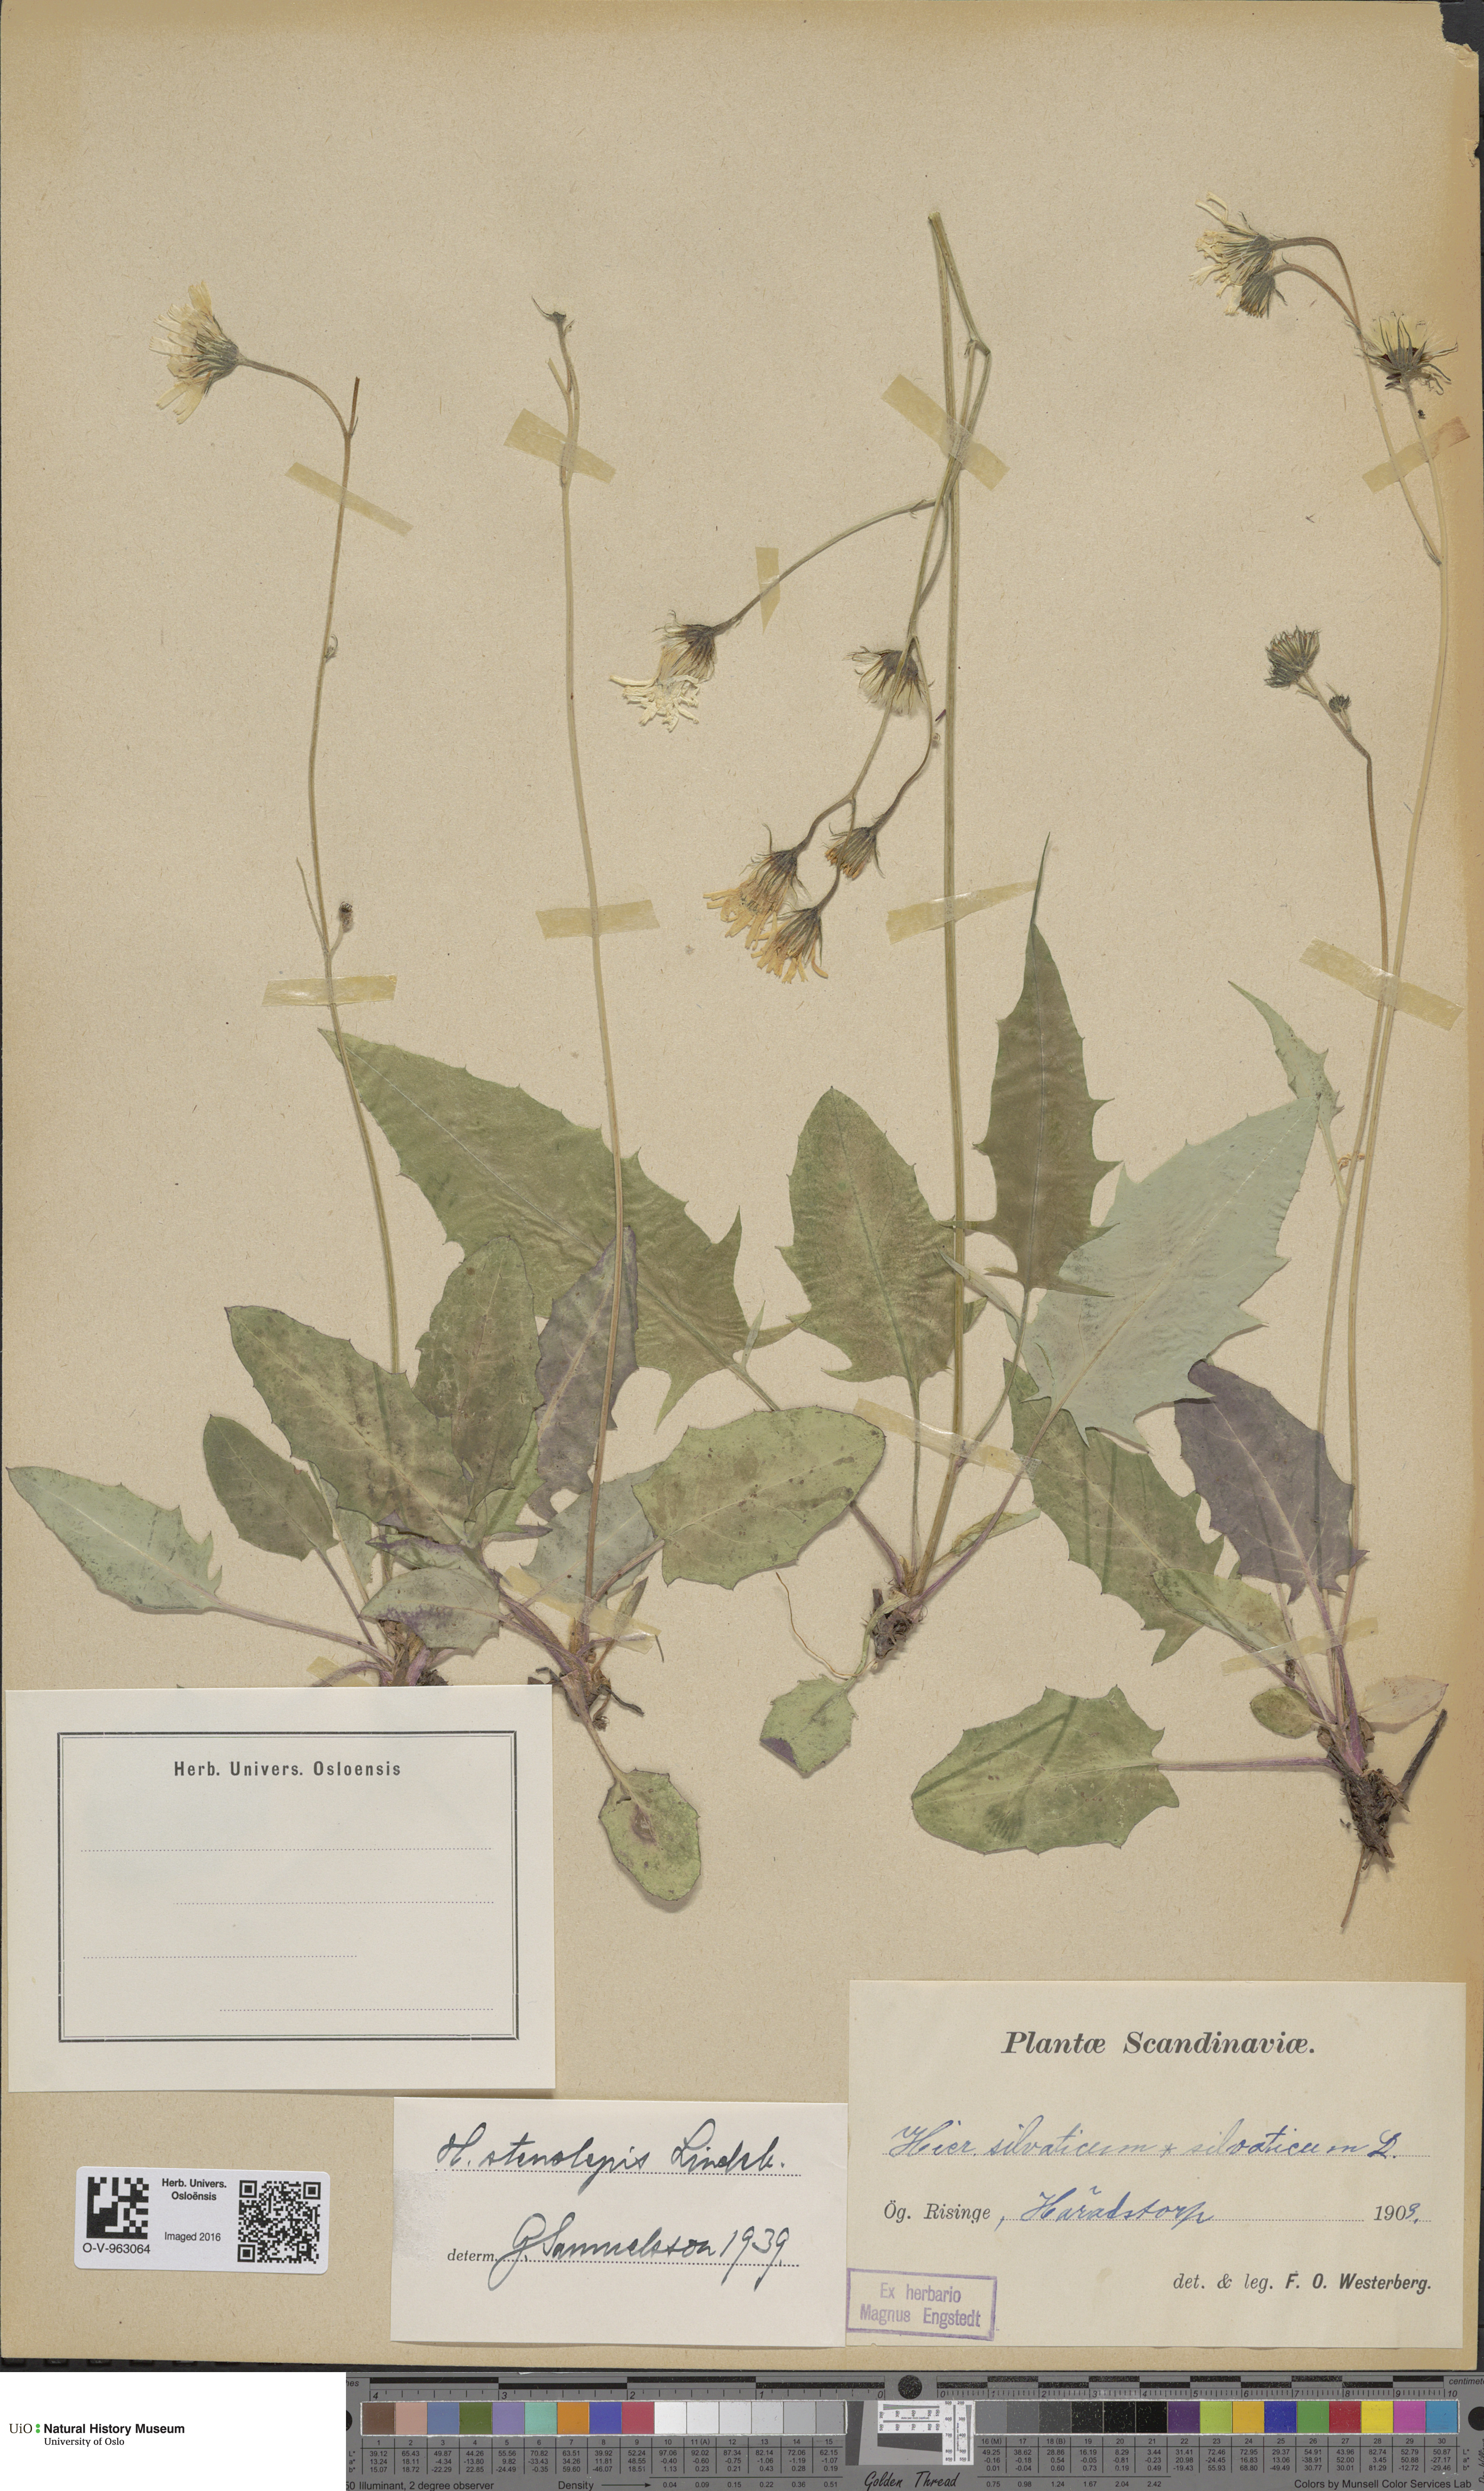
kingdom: Plantae
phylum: Tracheophyta
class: Magnoliopsida
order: Asterales
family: Asteraceae
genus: Hieracium
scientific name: Hieracium bifidum
